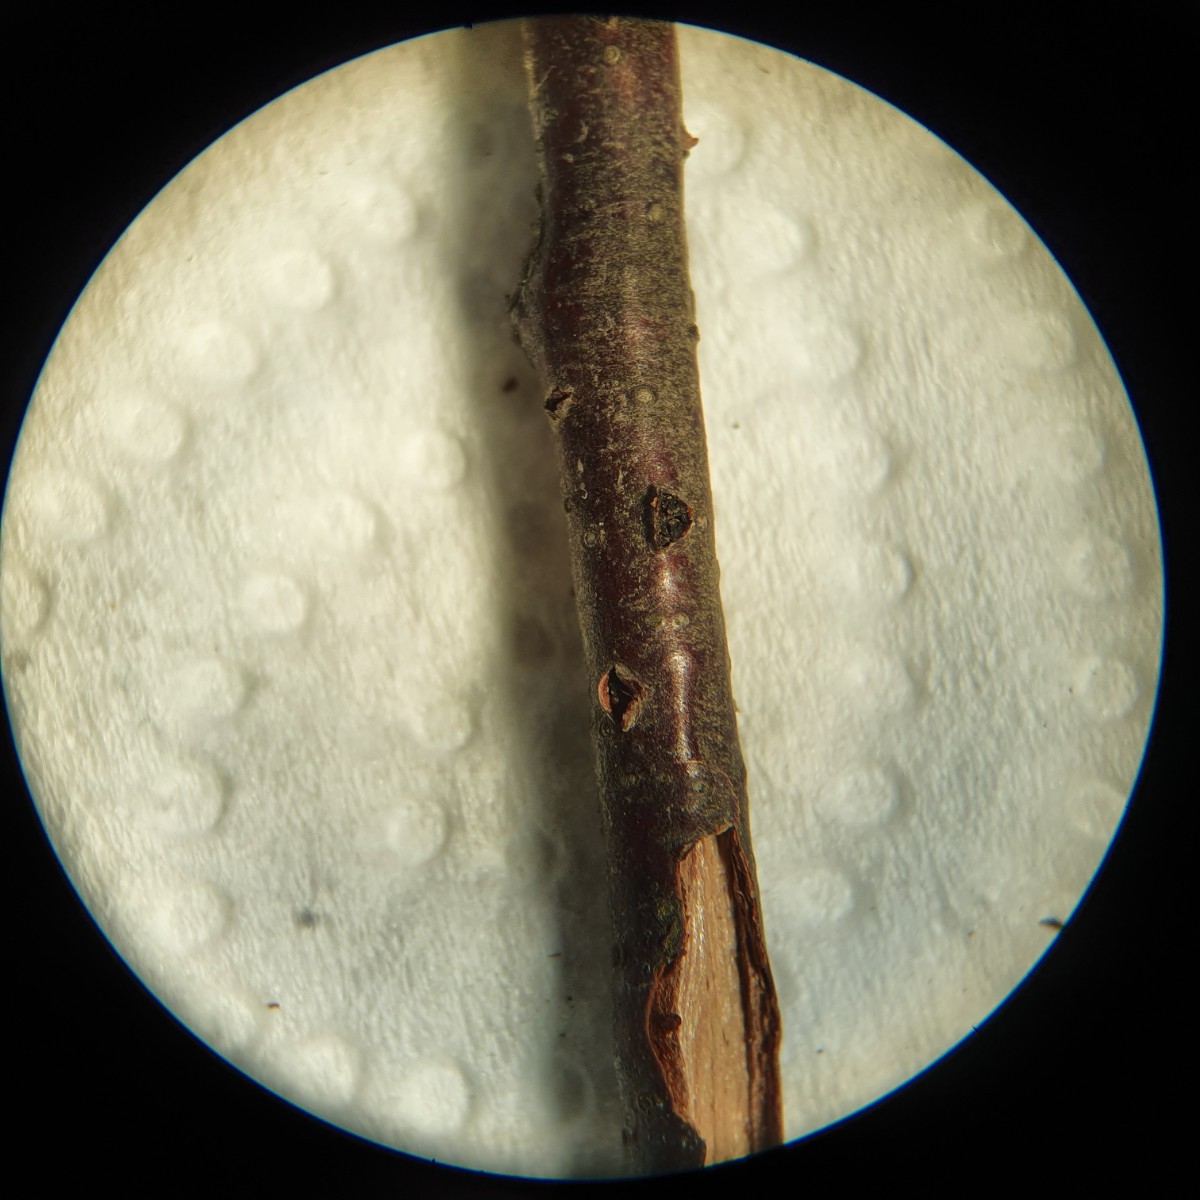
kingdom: Fungi
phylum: Ascomycota
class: Sordariomycetes
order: Diaporthales
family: Coryneaceae
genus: Coryneum
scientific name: Coryneum lanciforme
